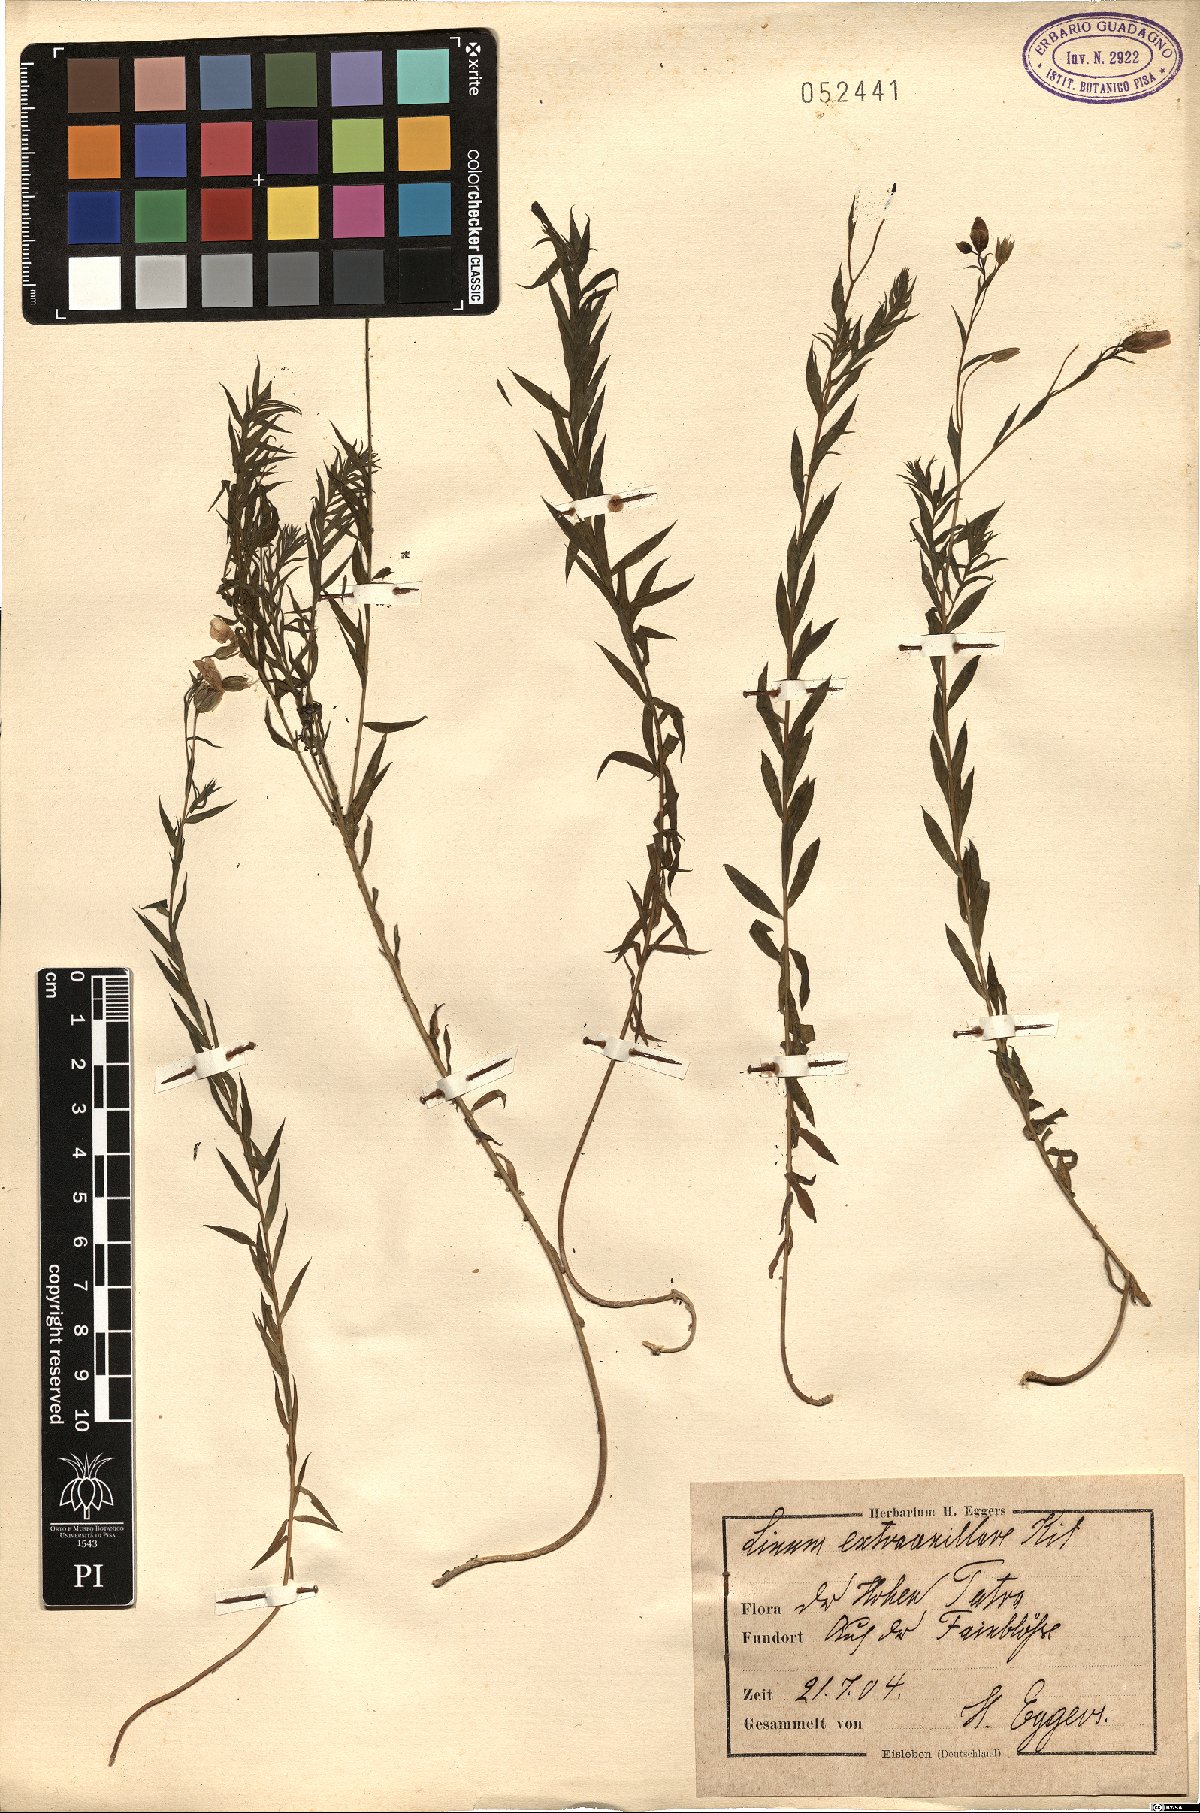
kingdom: Plantae
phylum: Tracheophyta
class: Magnoliopsida
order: Malpighiales
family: Linaceae
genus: Linum
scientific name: Linum perenne
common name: Blue flax
